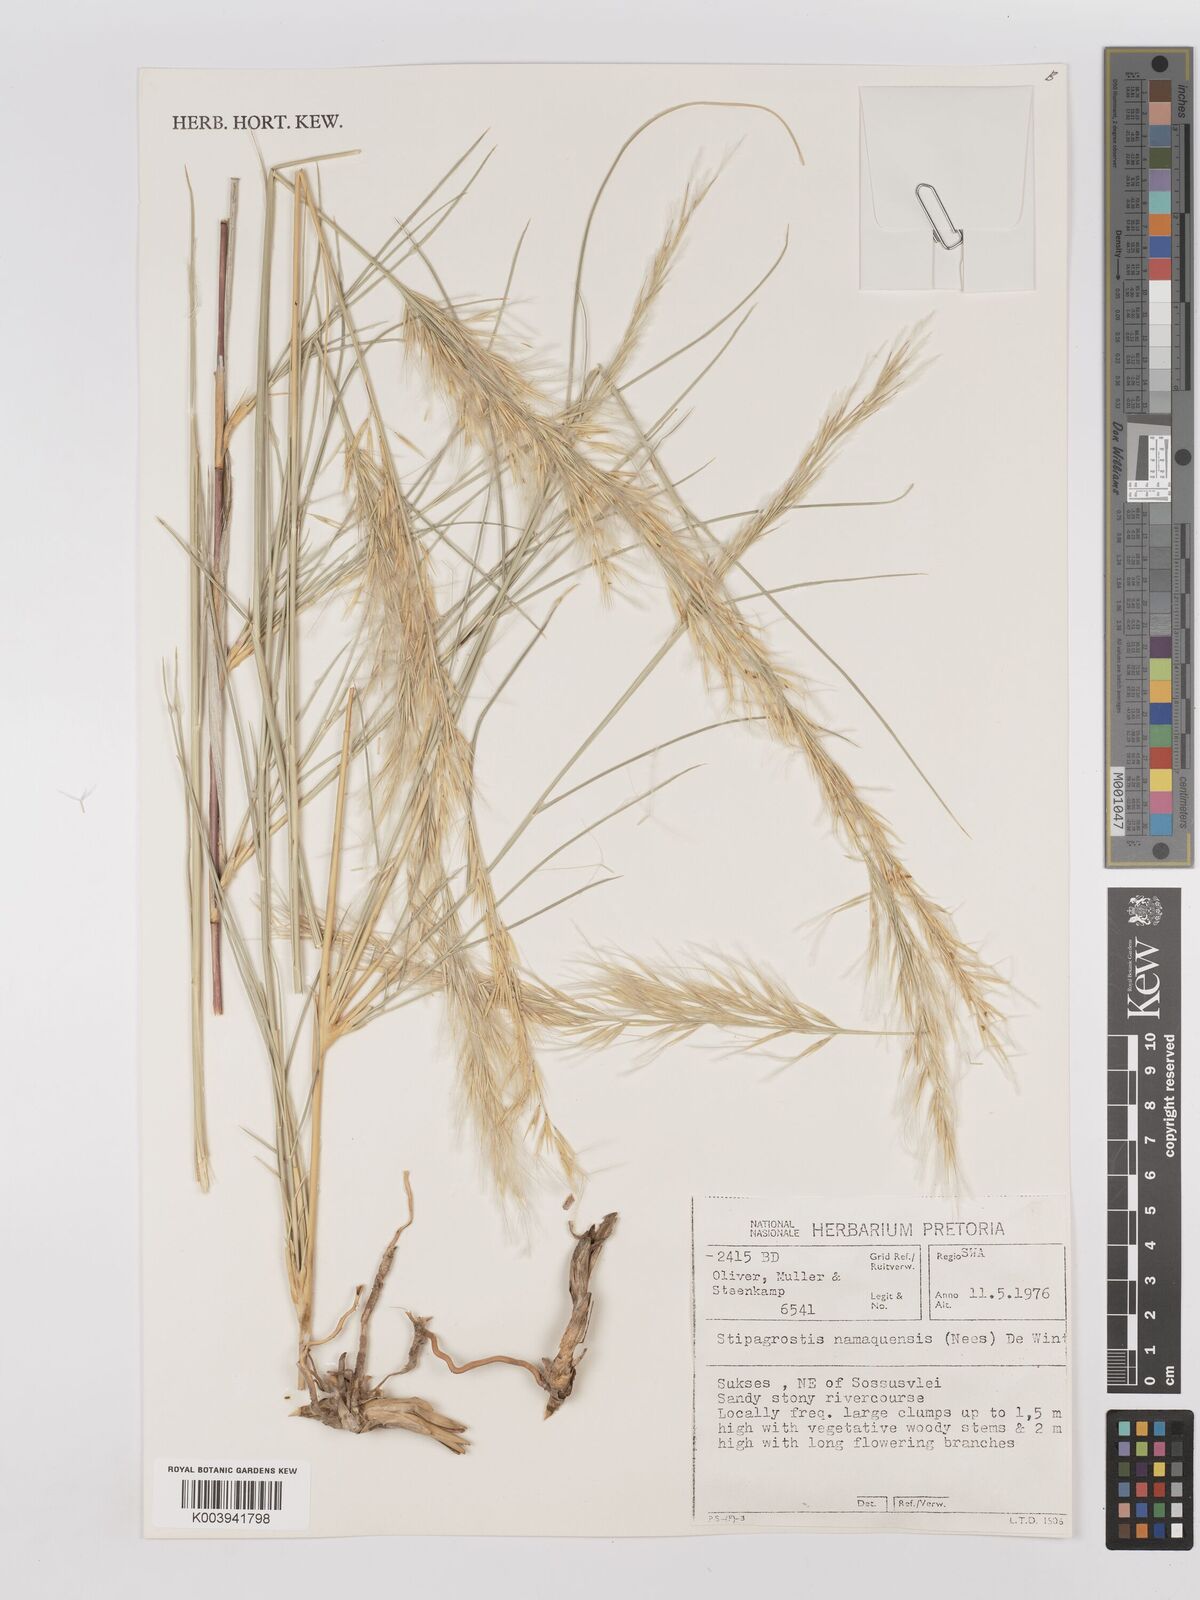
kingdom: Plantae
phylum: Tracheophyta
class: Liliopsida
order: Poales
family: Poaceae
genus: Stipagrostis
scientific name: Stipagrostis namaquensis
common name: River bushman grass
